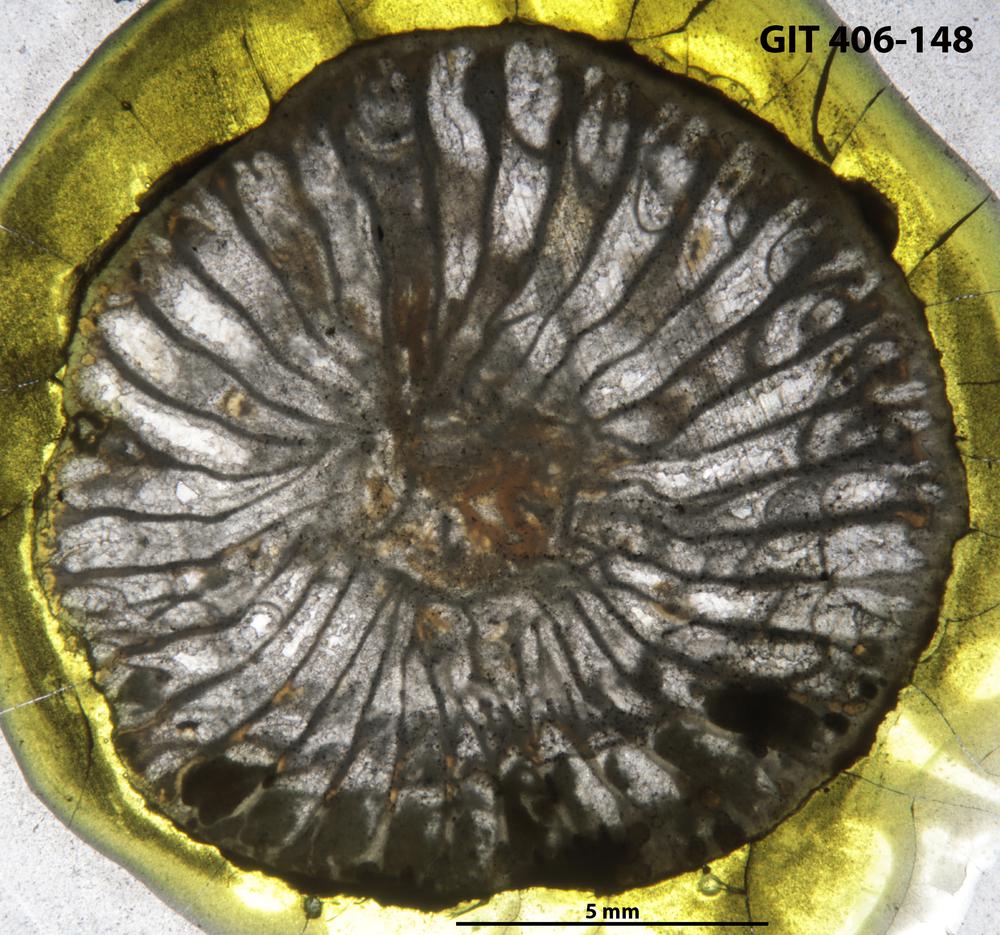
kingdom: Animalia
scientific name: Animalia
